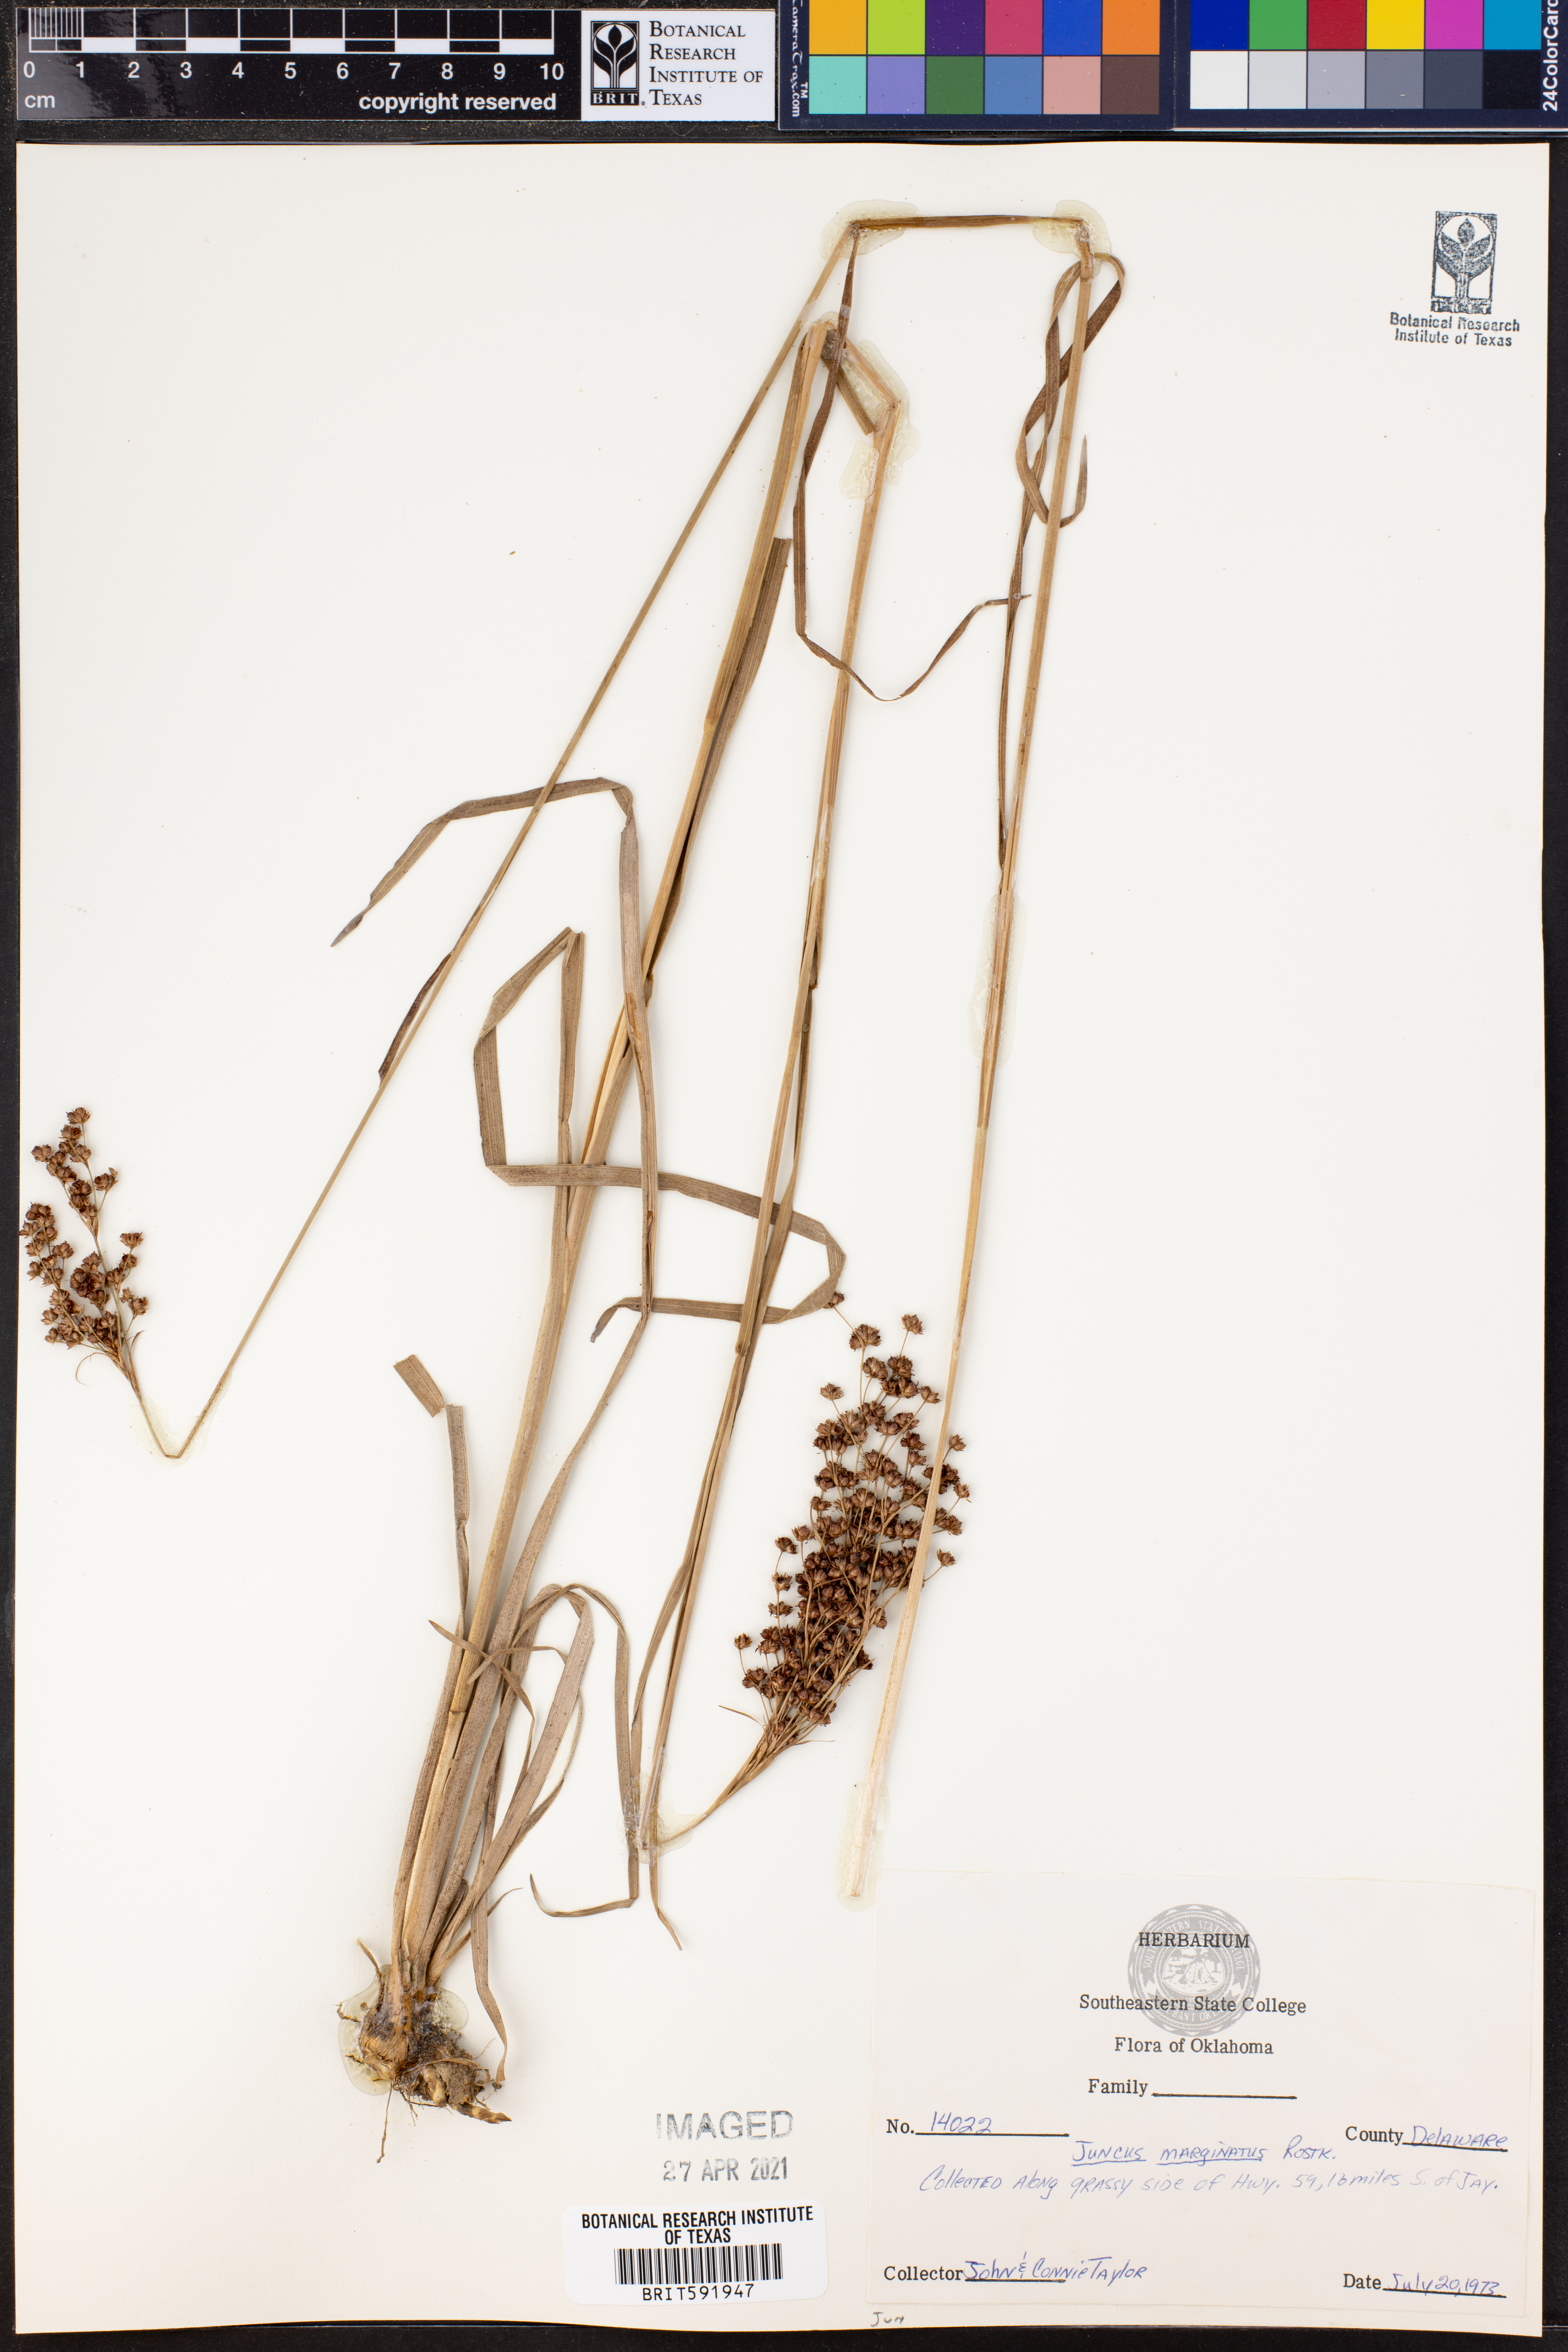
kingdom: Plantae
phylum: Tracheophyta
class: Liliopsida
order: Poales
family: Juncaceae
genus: Juncus
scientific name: Juncus marginatus
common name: Grass-leaf rush
